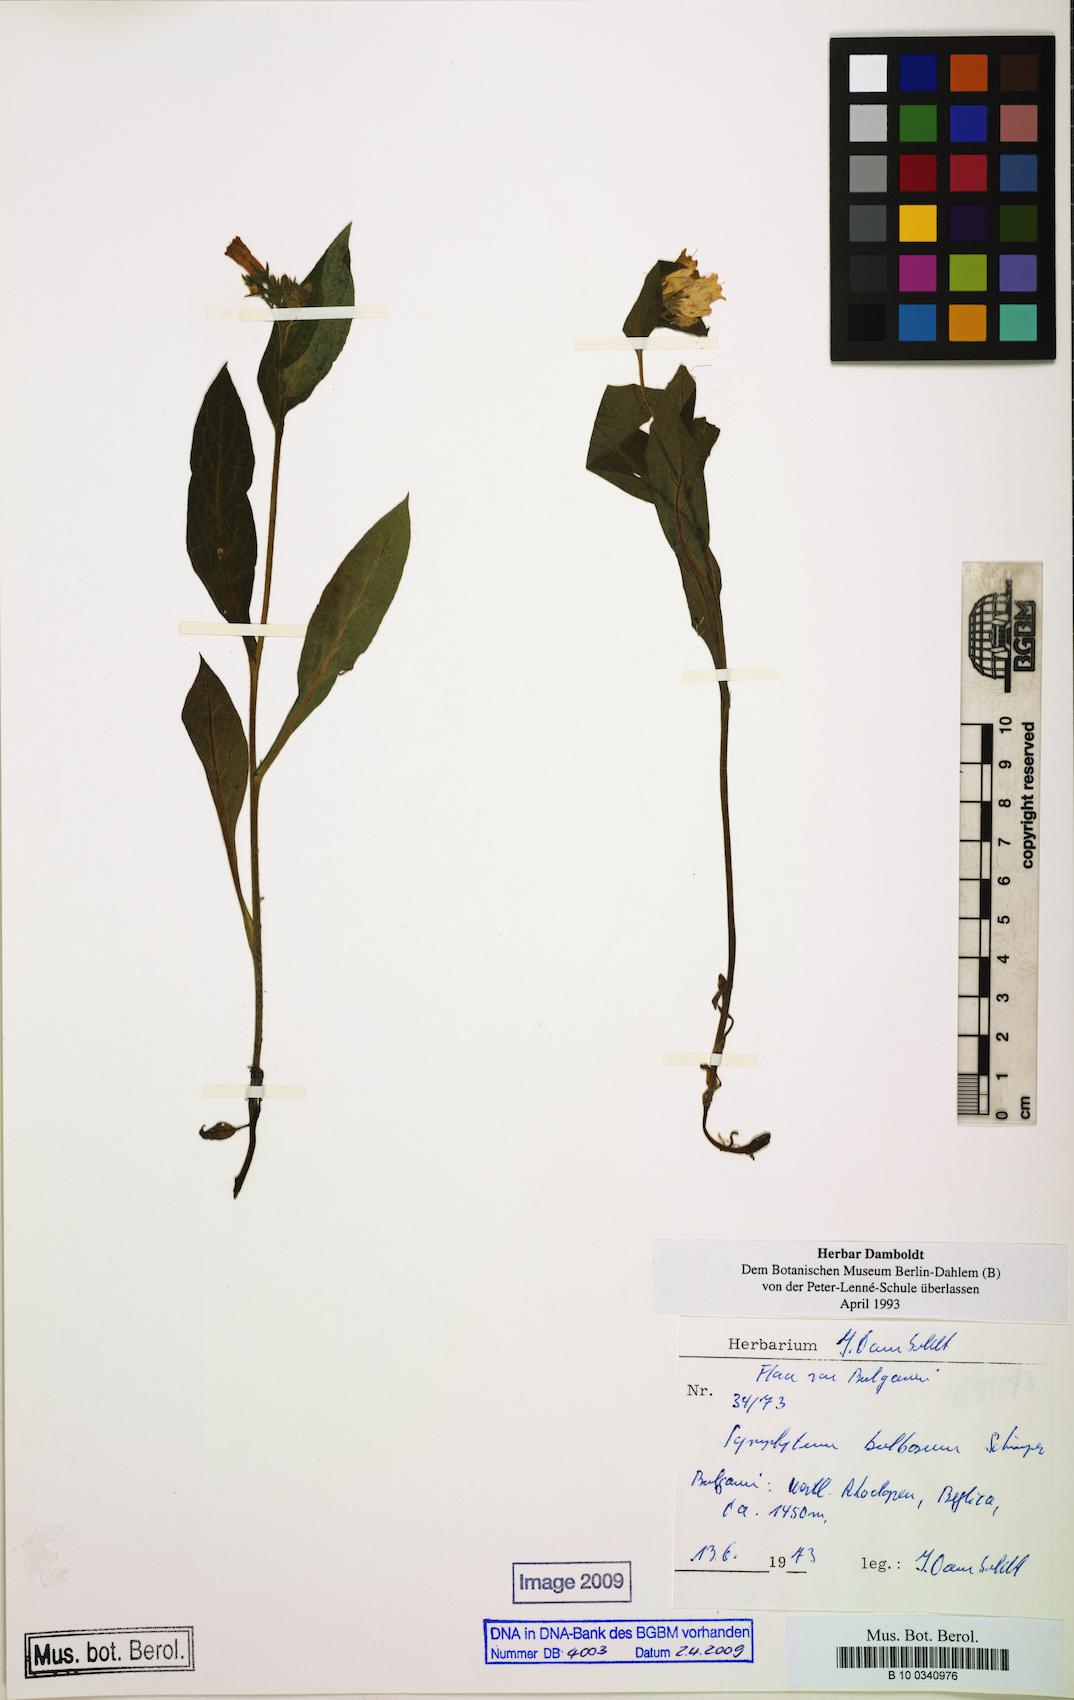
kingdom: Plantae
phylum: Tracheophyta
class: Magnoliopsida
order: Boraginales
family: Boraginaceae
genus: Symphytum
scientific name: Symphytum bulbosum
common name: Bulbous comfrey
